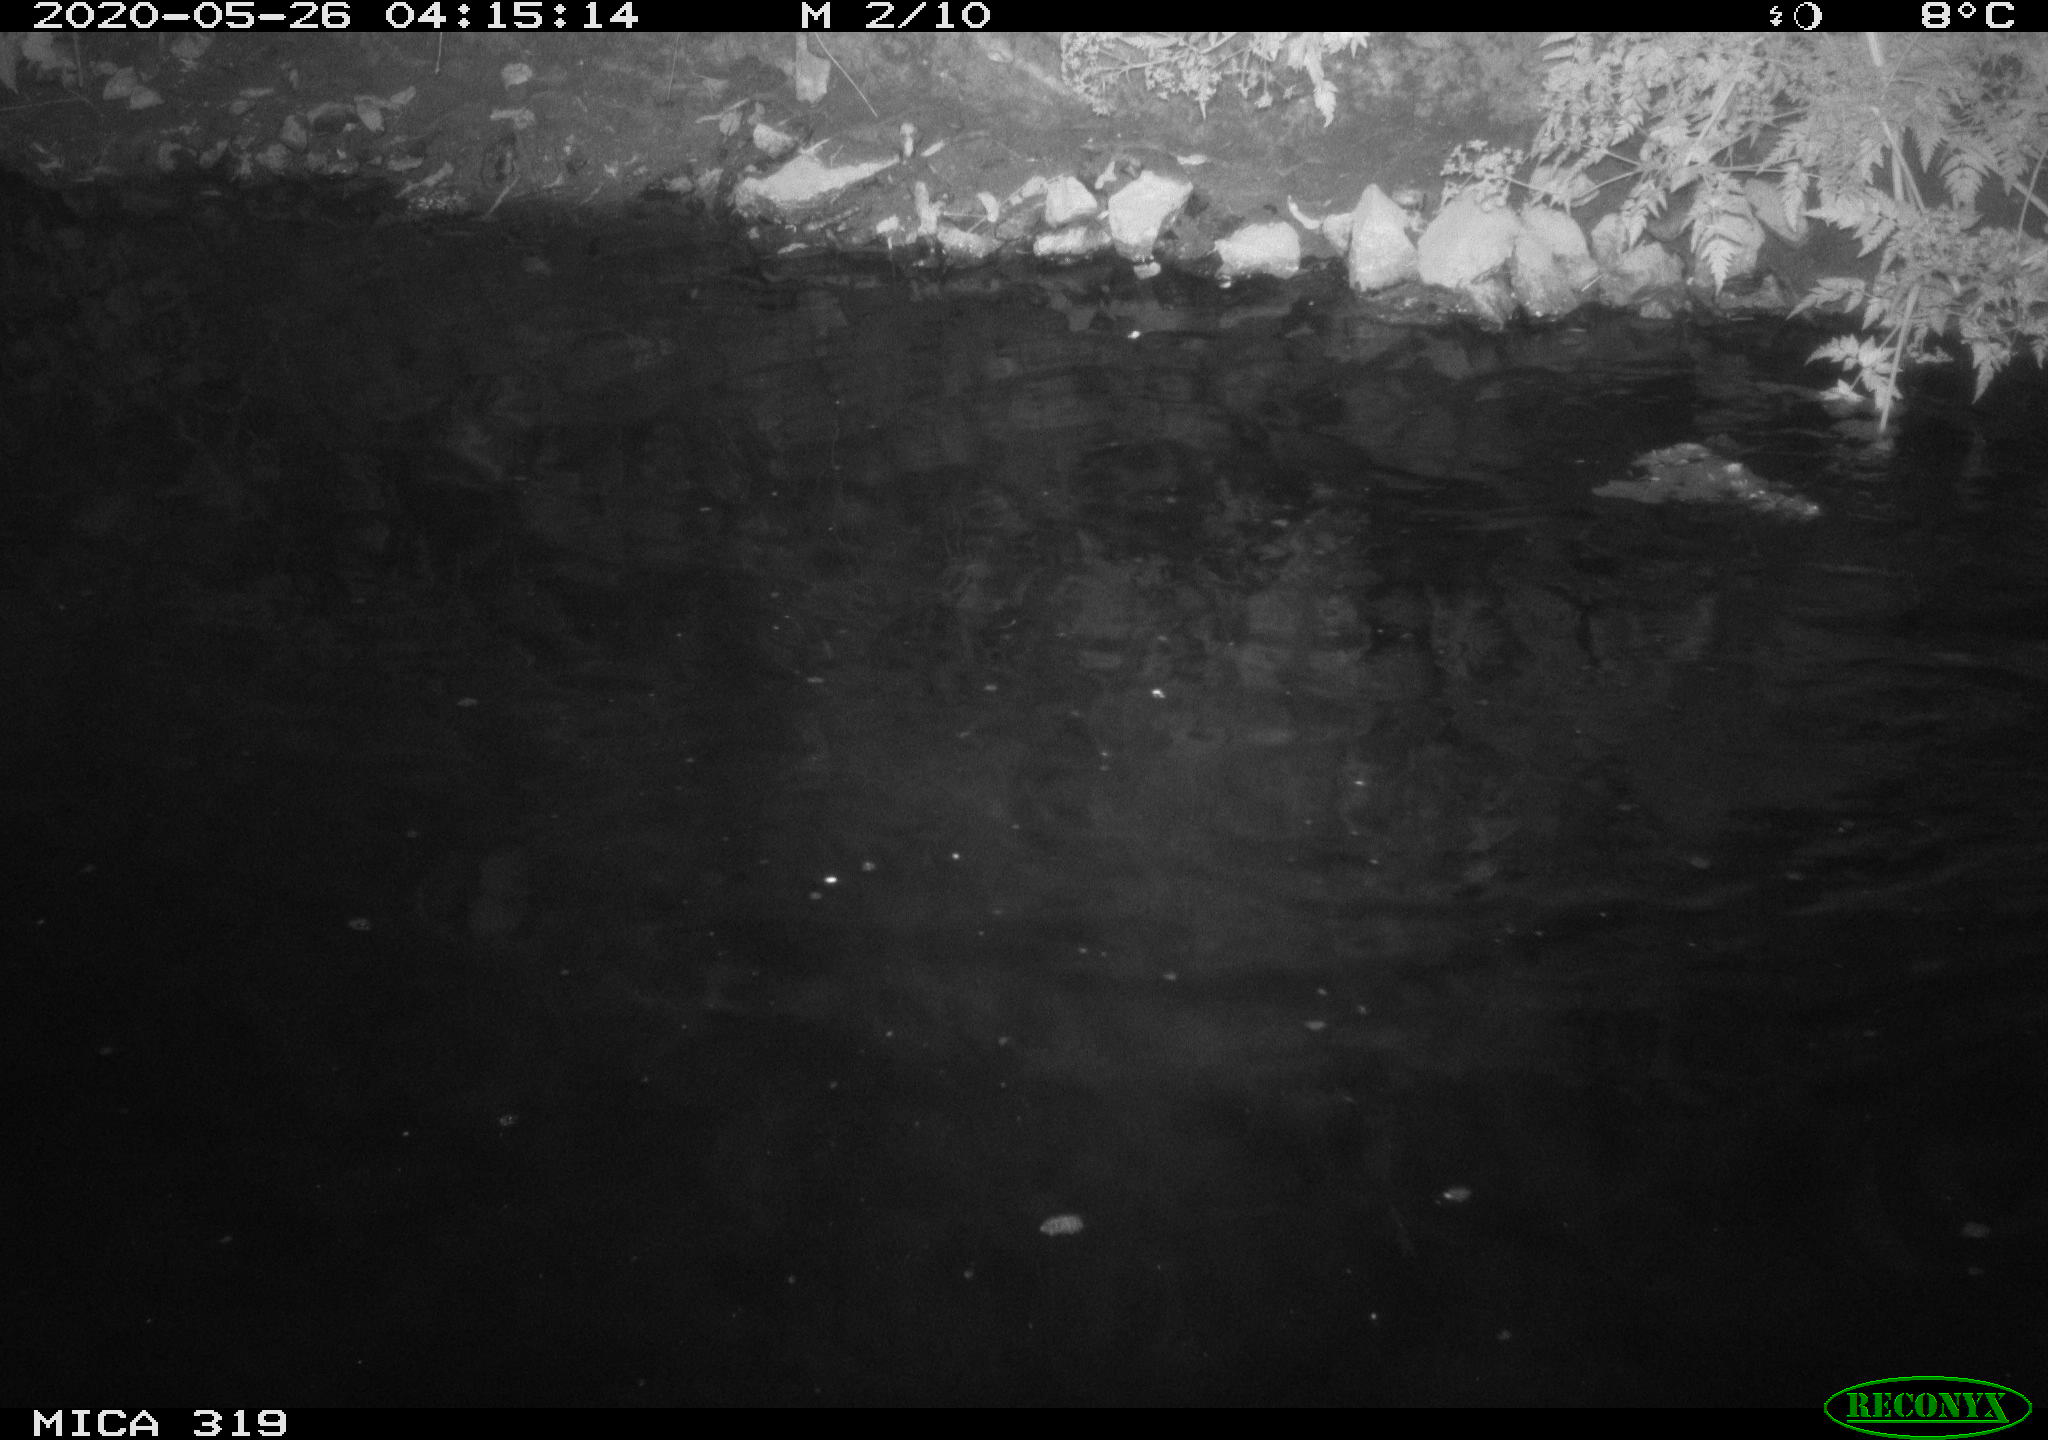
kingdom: Animalia
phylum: Chordata
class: Aves
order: Anseriformes
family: Anatidae
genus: Anas
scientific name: Anas platyrhynchos
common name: Mallard
